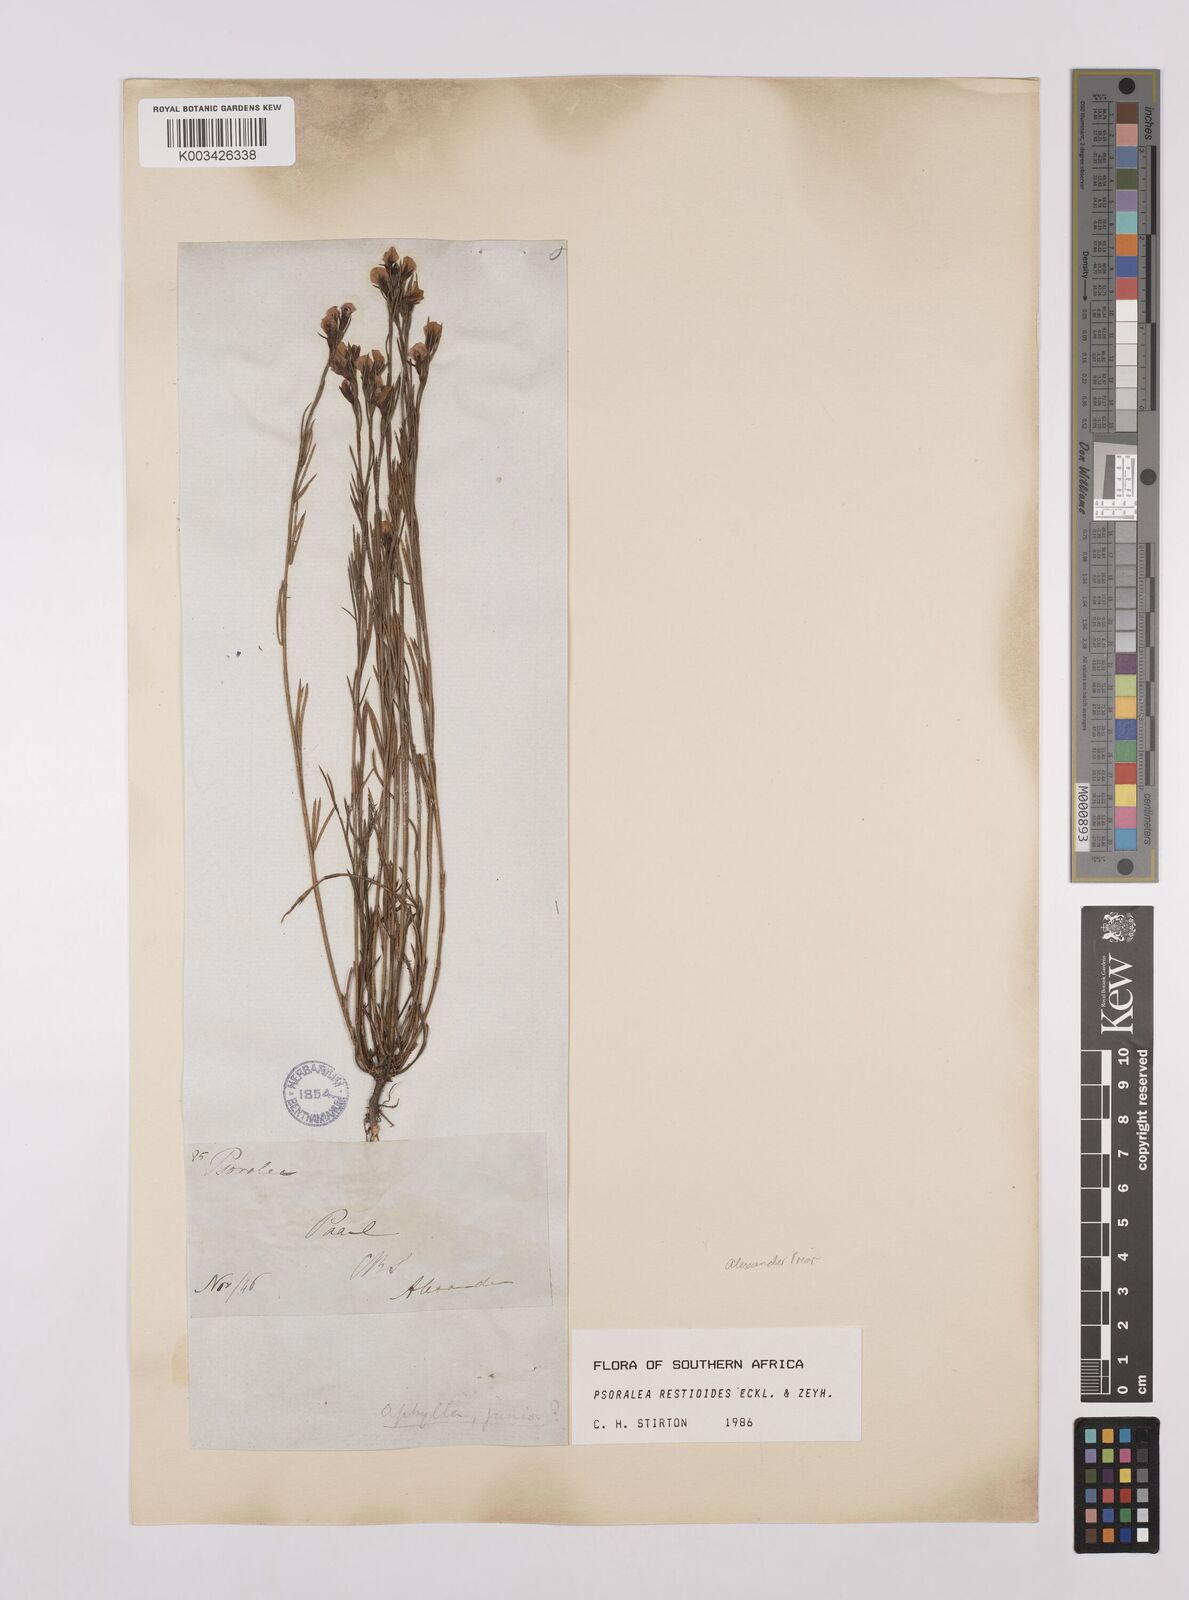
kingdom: Plantae
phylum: Tracheophyta
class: Magnoliopsida
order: Fabales
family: Fabaceae
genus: Psoralea
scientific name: Psoralea restioides
